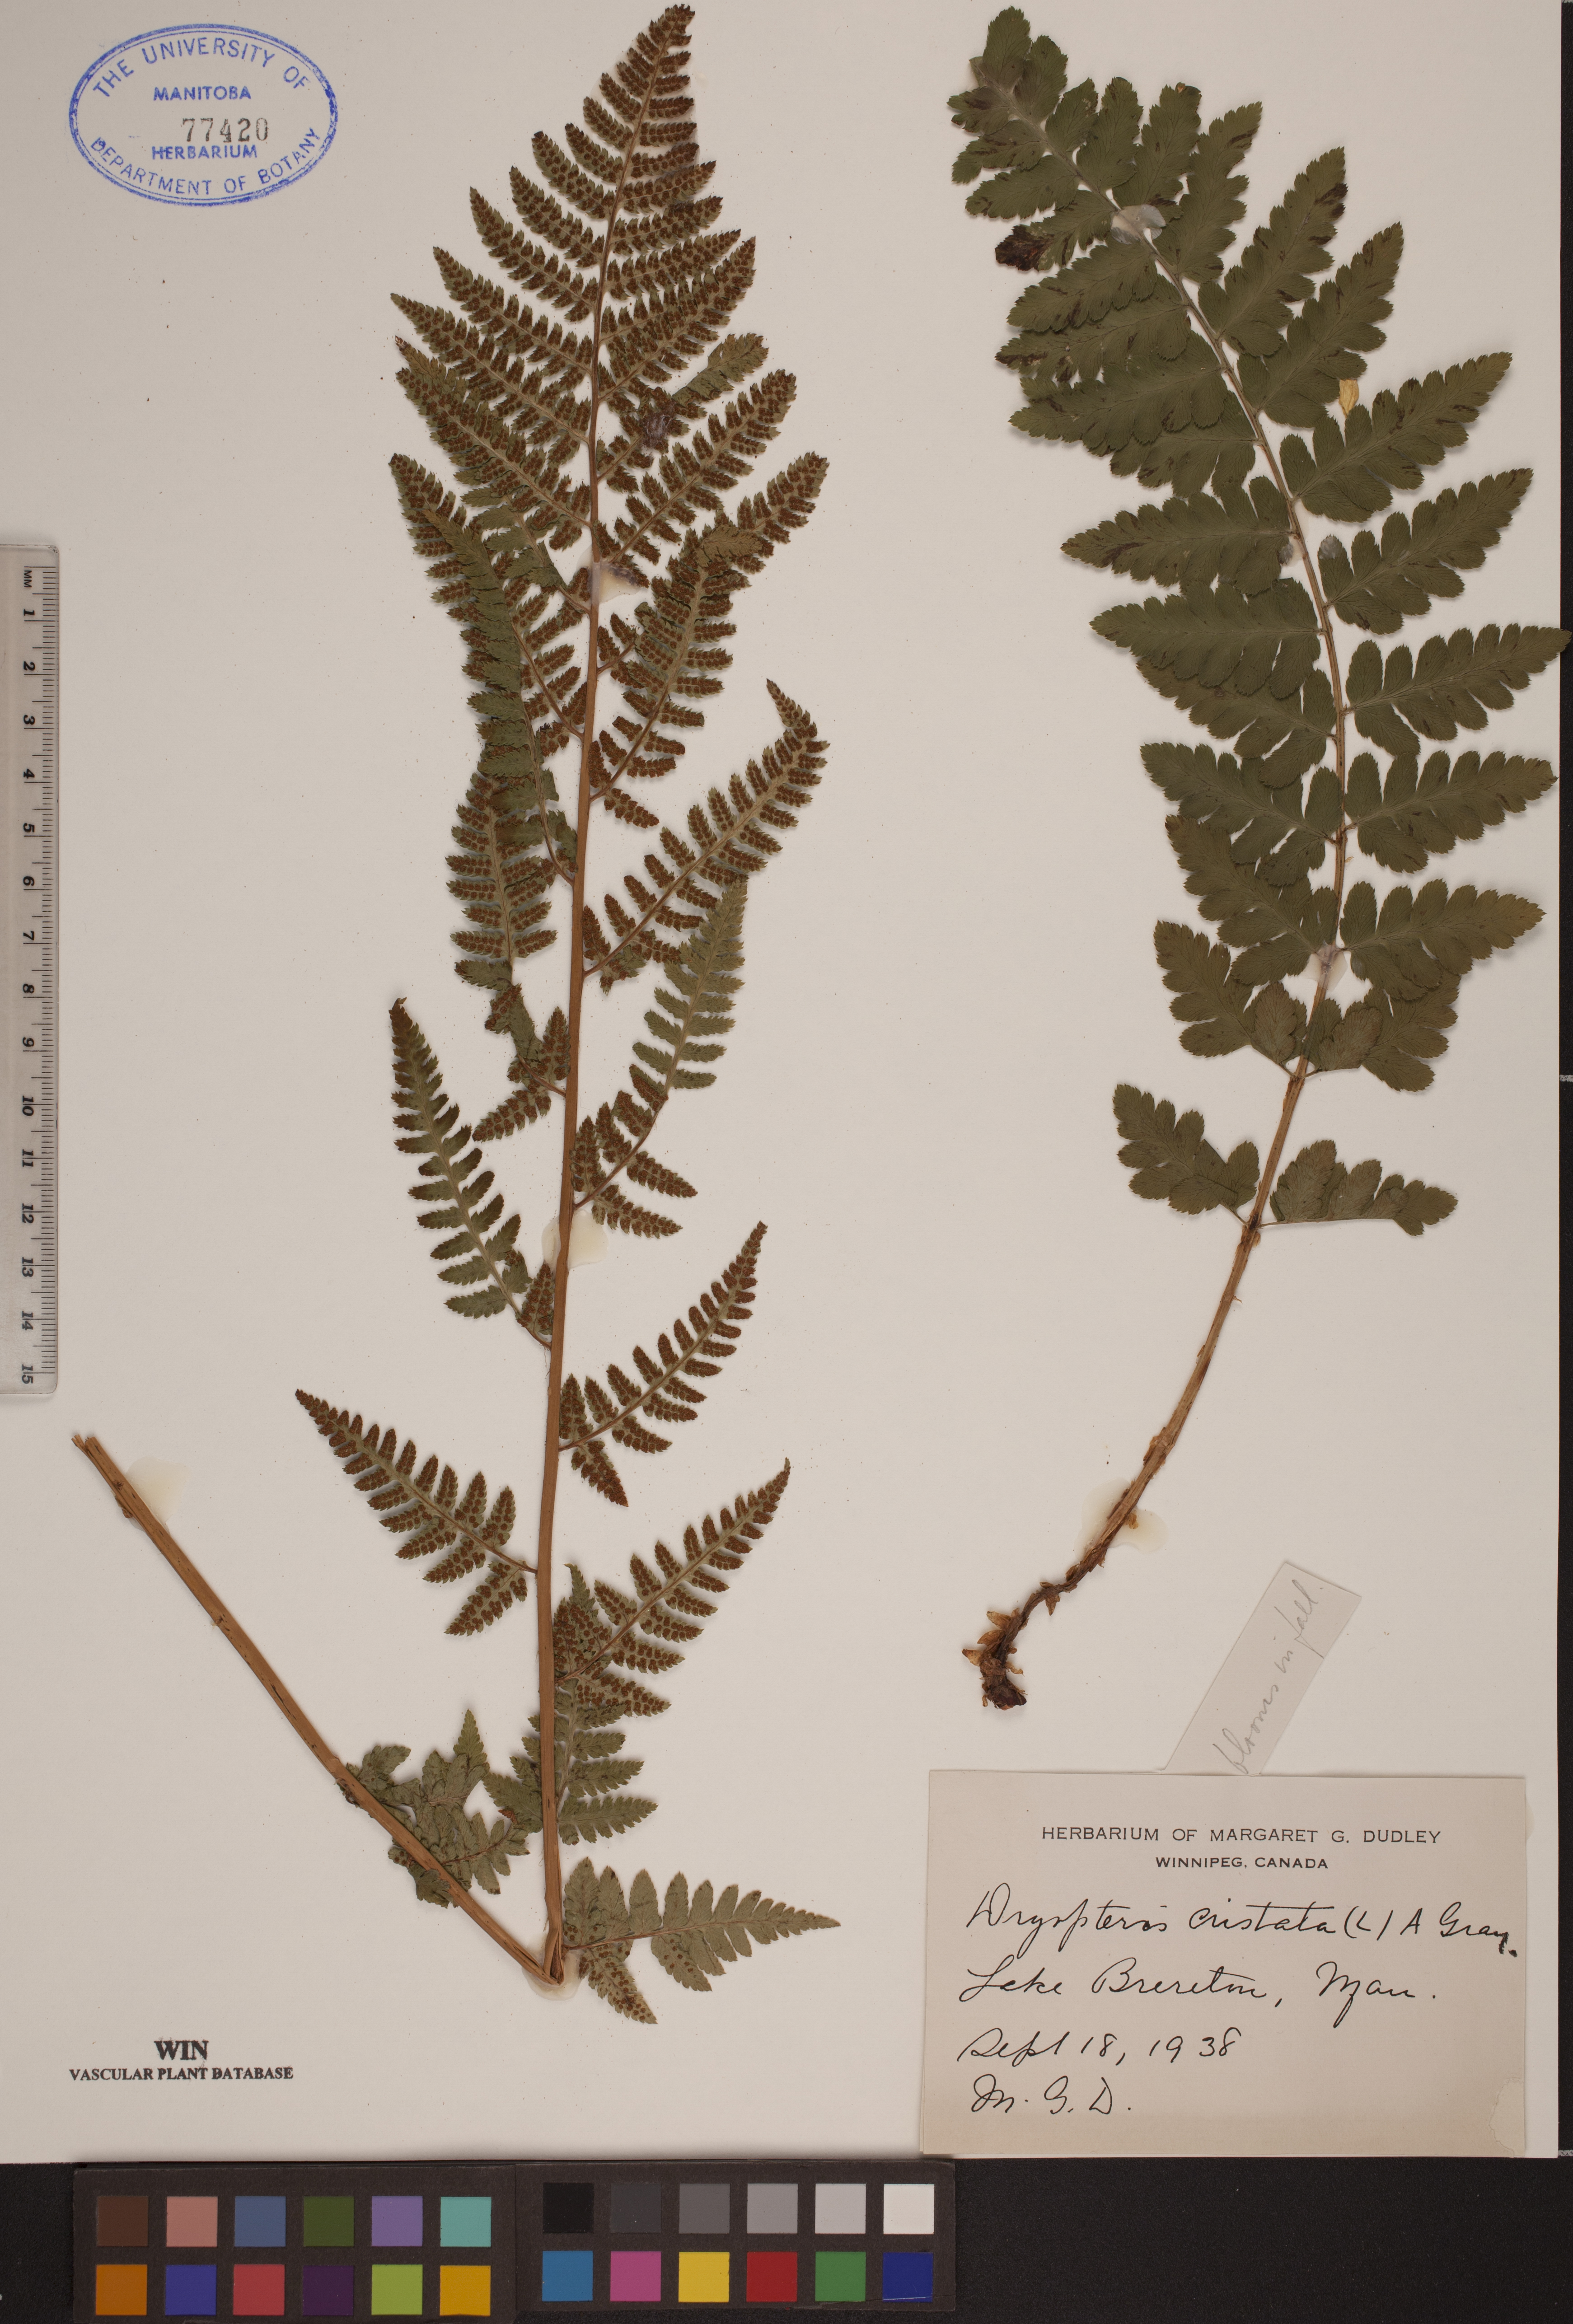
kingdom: Plantae
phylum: Tracheophyta
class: Polypodiopsida
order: Polypodiales
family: Dryopteridaceae
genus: Dryopteris
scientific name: Dryopteris cristata
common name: Crested wood fern
